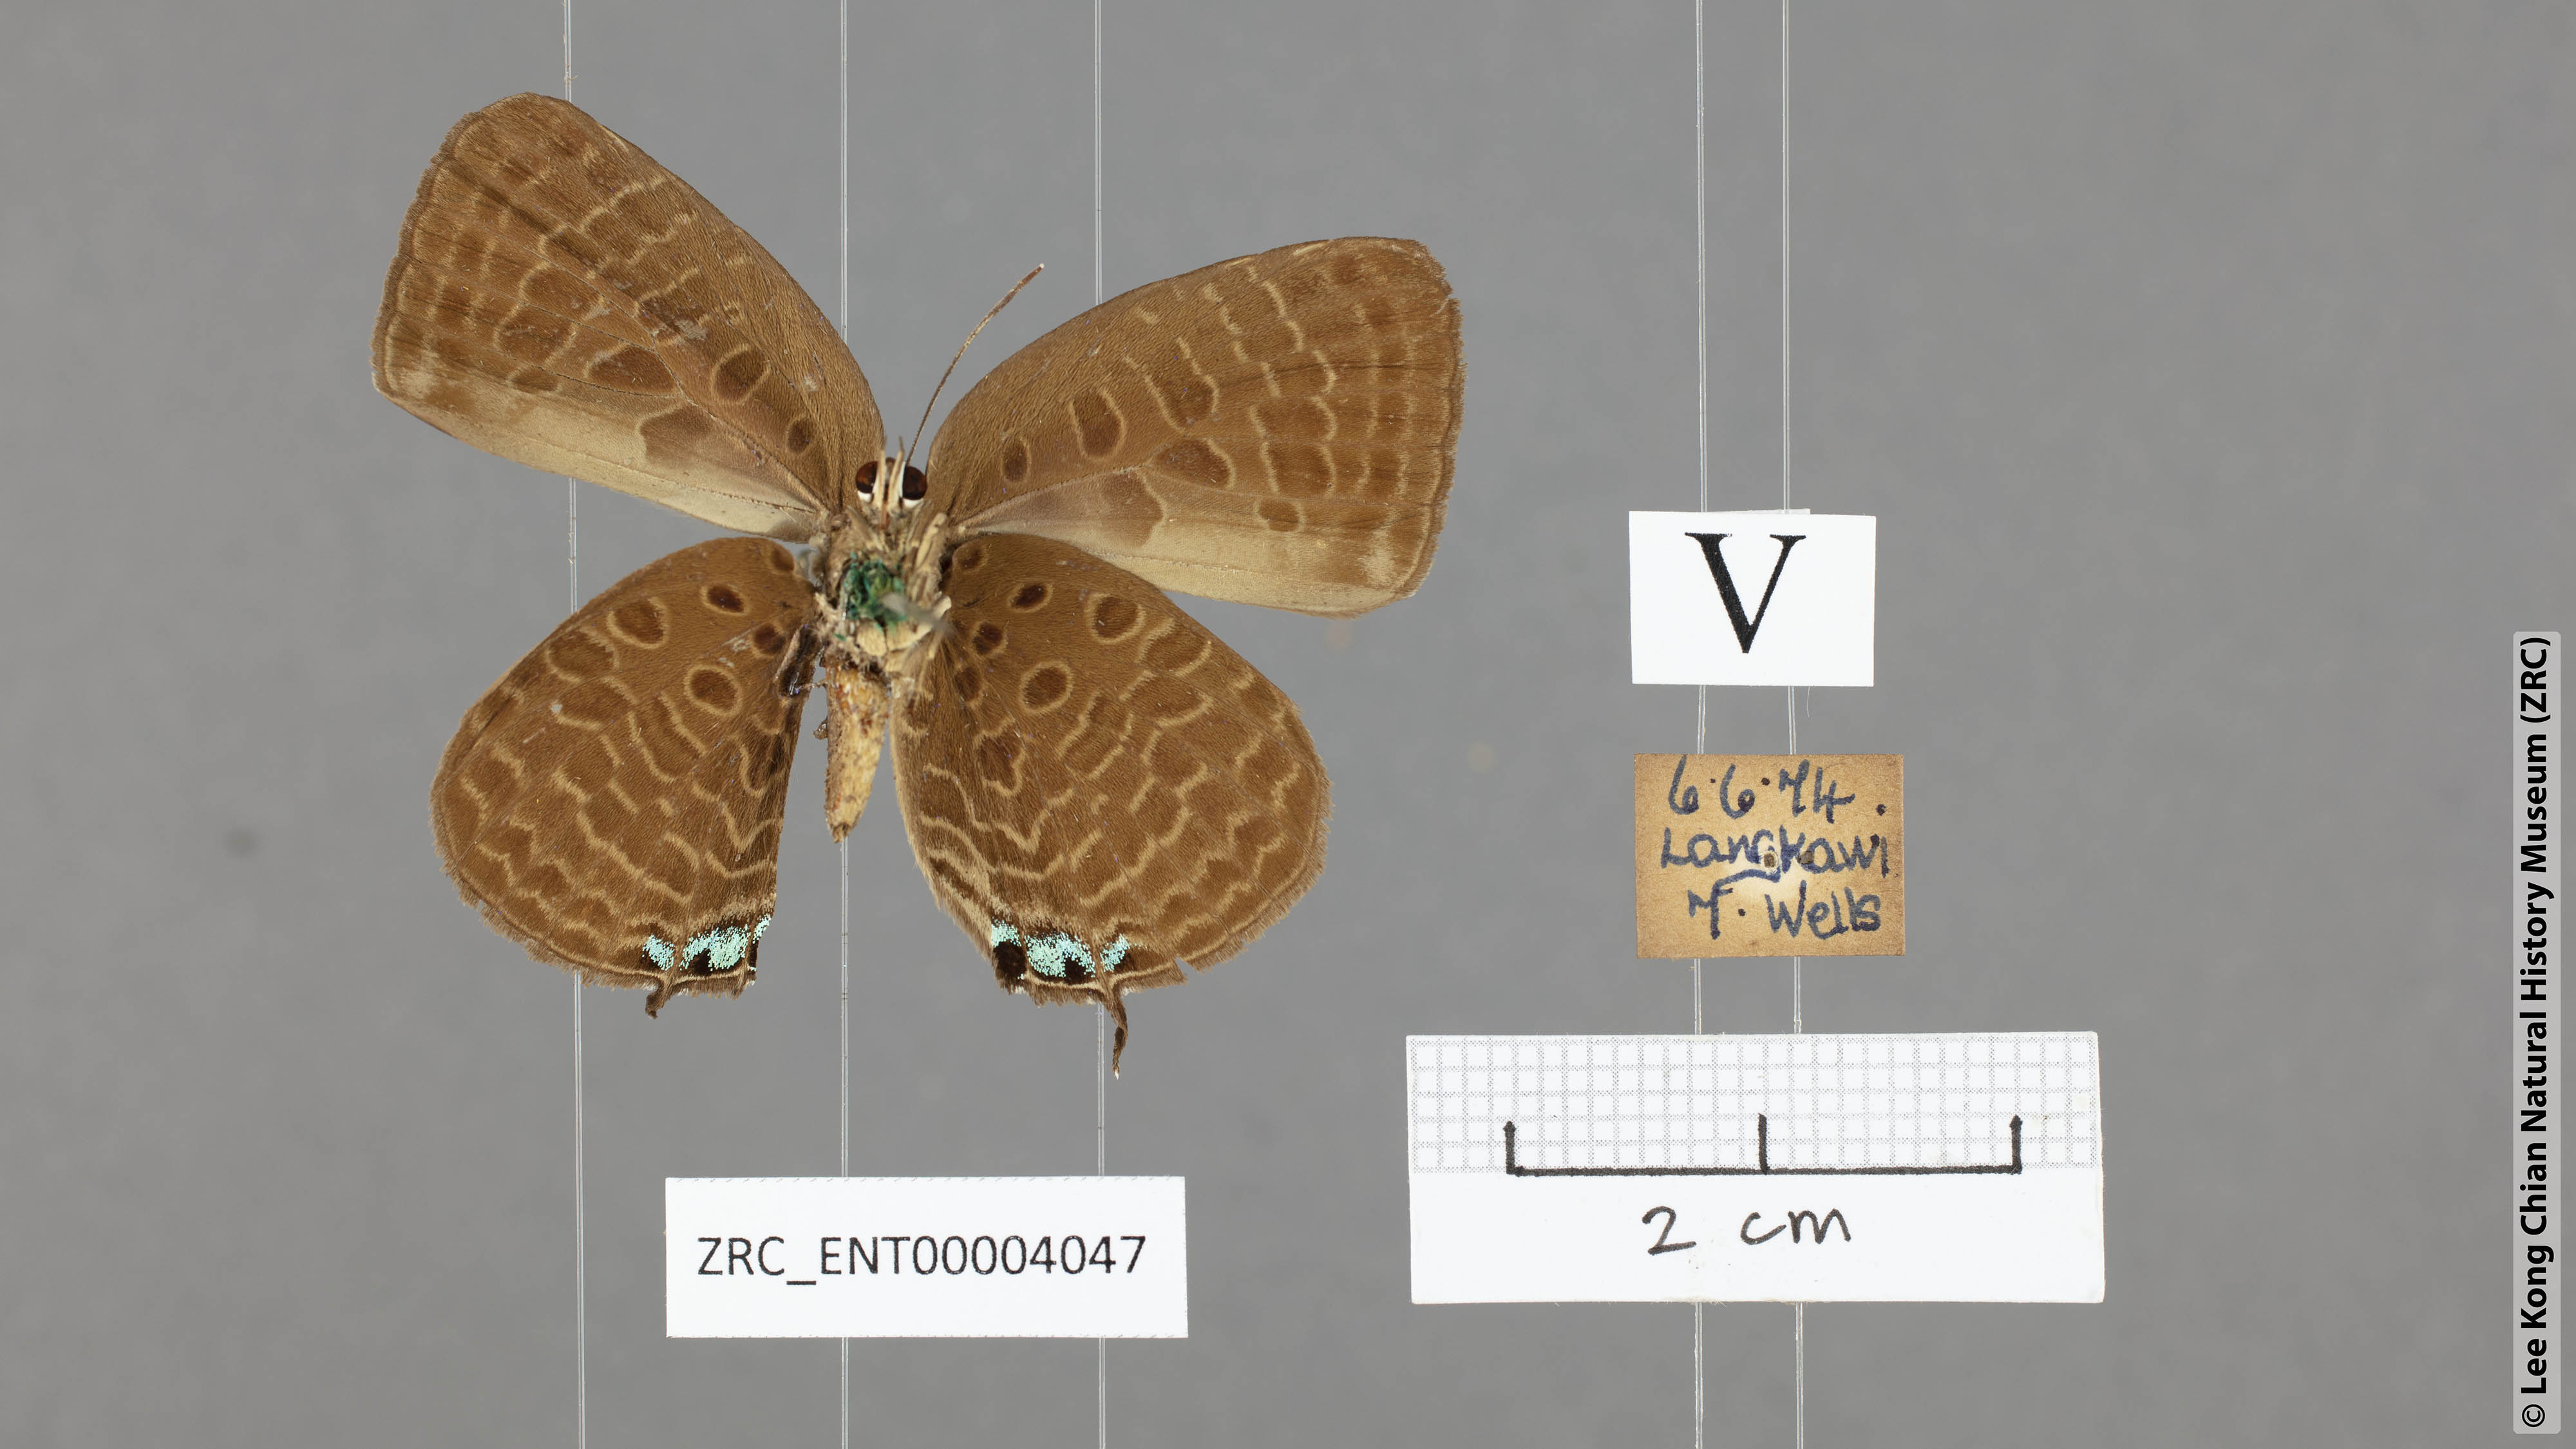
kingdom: Animalia
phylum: Arthropoda
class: Insecta
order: Lepidoptera
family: Lycaenidae
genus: Arhopala
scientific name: Arhopala
